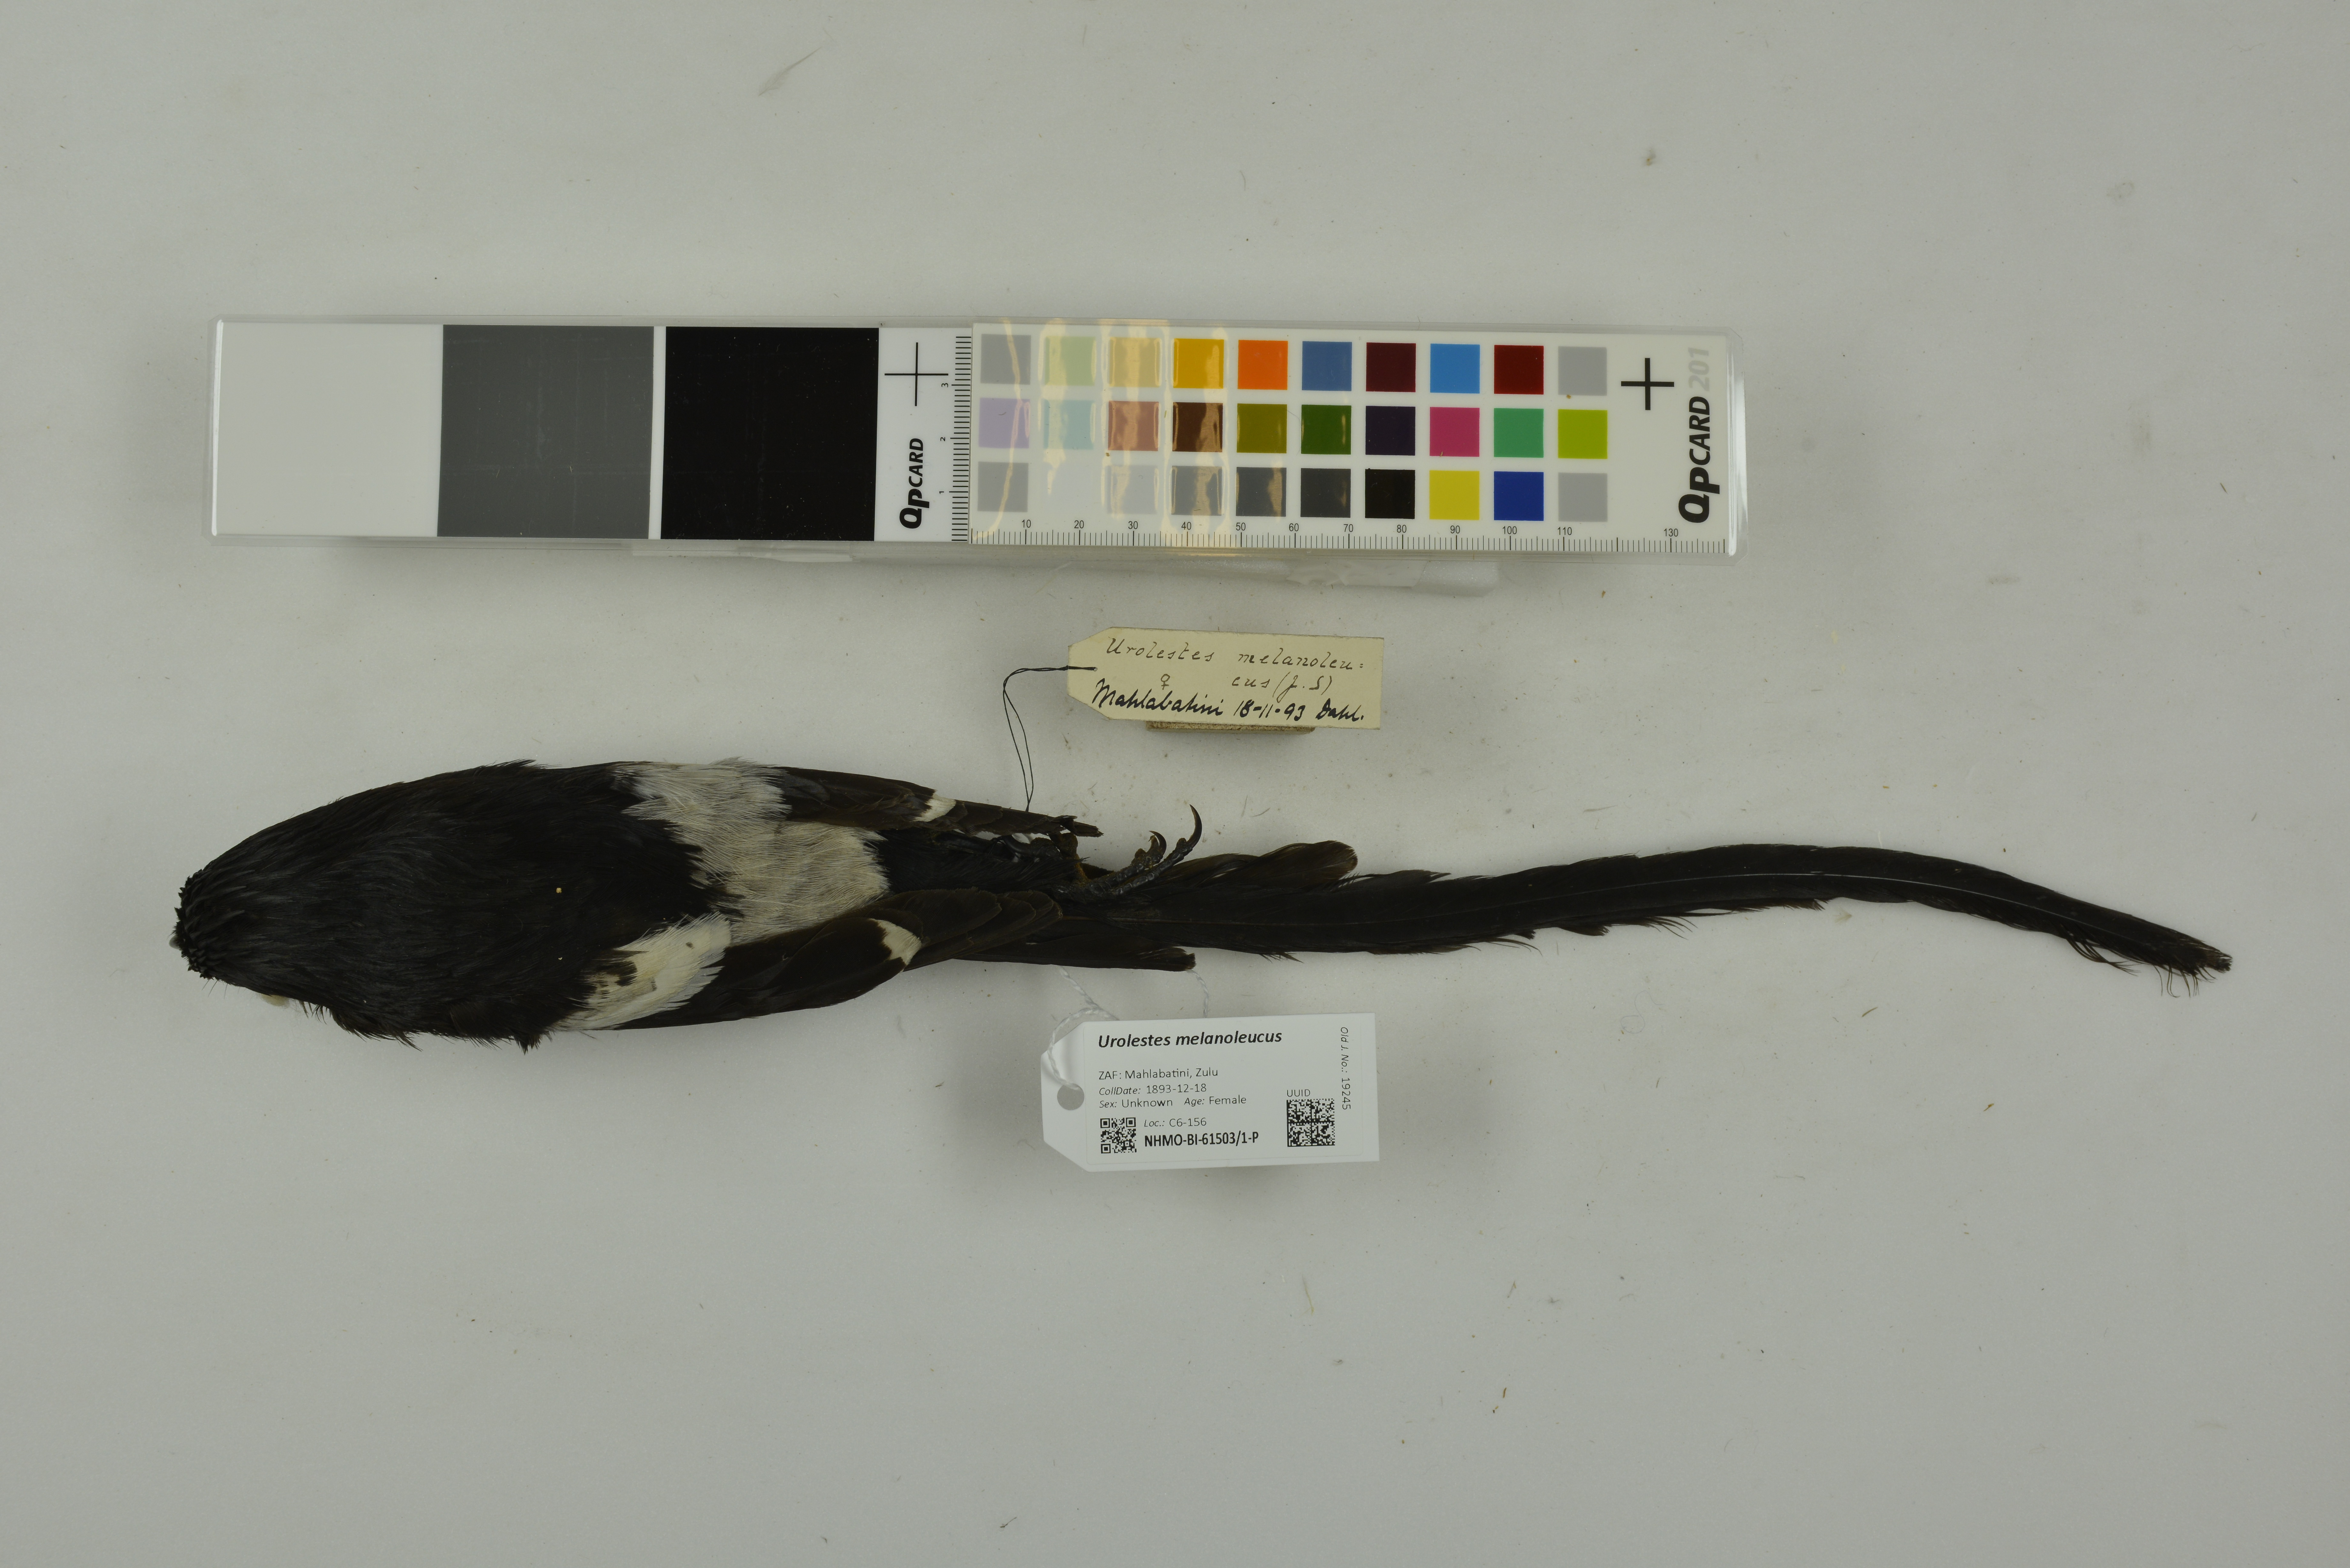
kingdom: Animalia
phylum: Chordata
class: Aves
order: Passeriformes
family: Laniidae
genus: Urolestes
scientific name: Urolestes melanoleucus
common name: Magpie shrike
